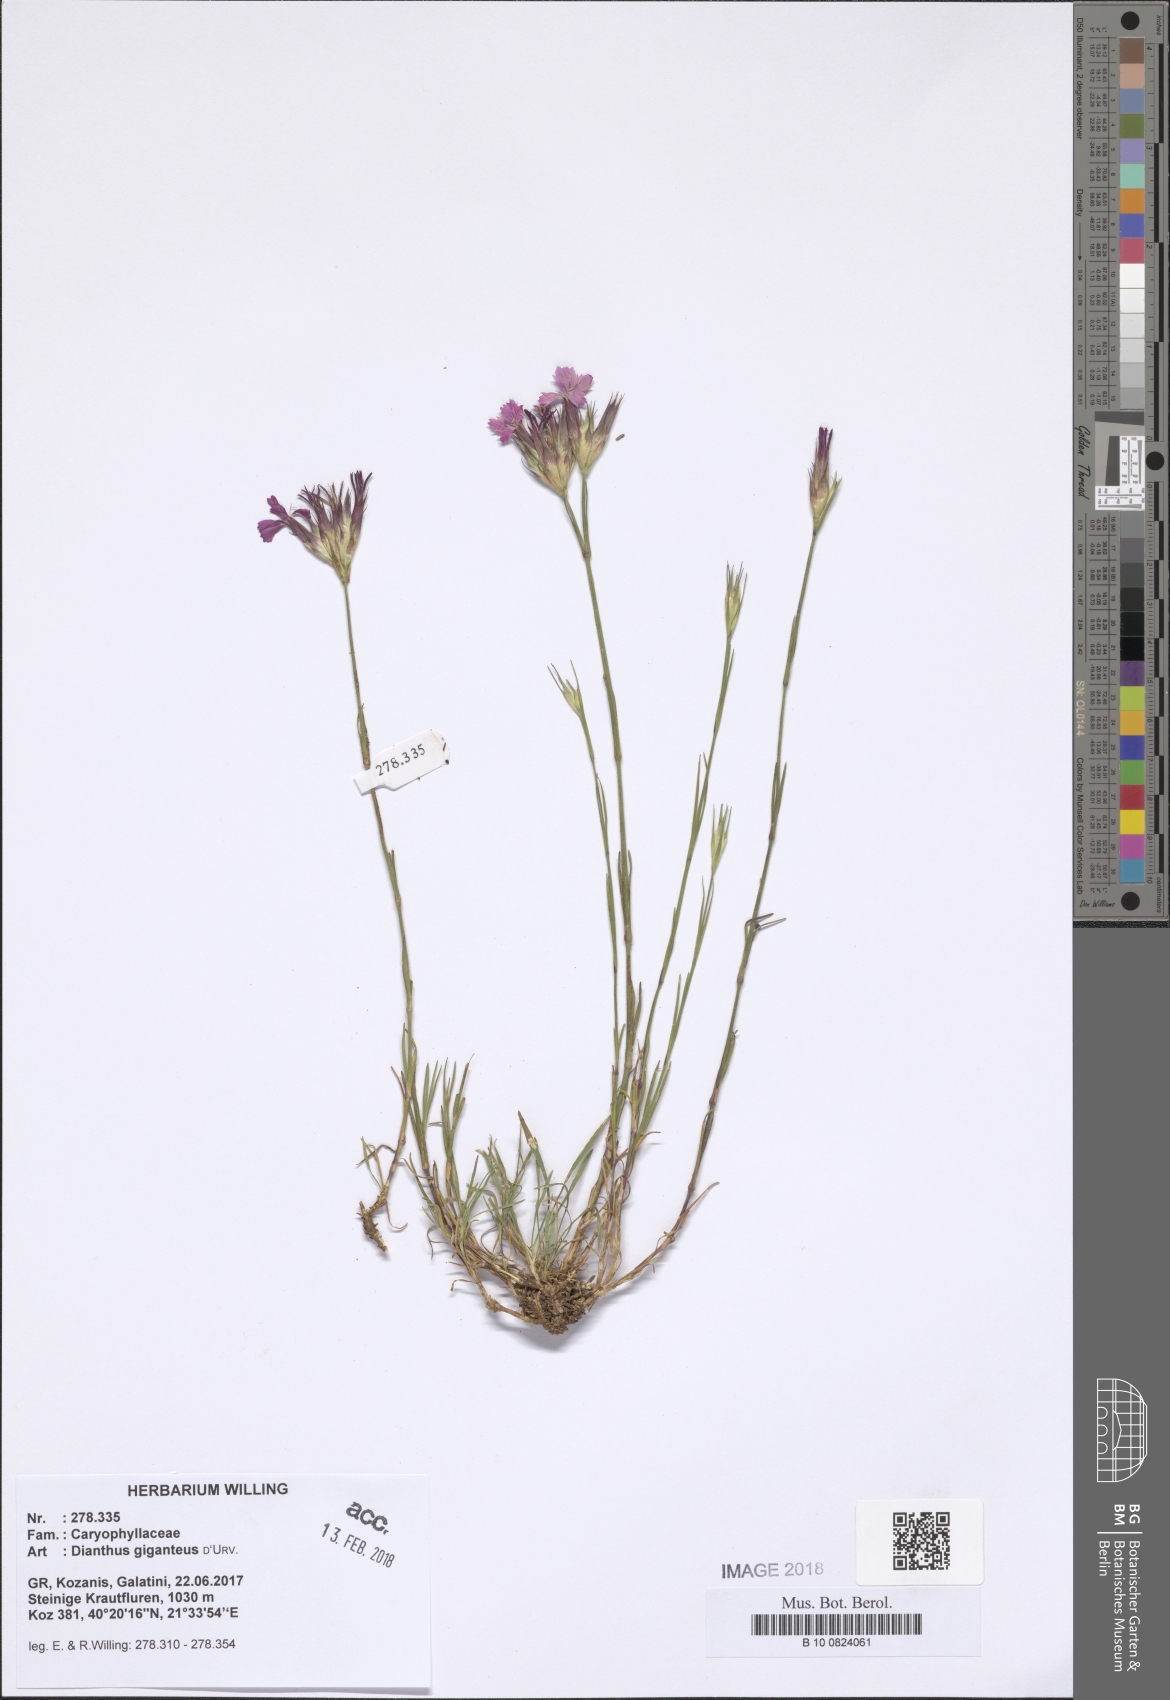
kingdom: Plantae
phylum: Tracheophyta
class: Magnoliopsida
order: Caryophyllales
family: Caryophyllaceae
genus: Dianthus
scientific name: Dianthus giganteus
